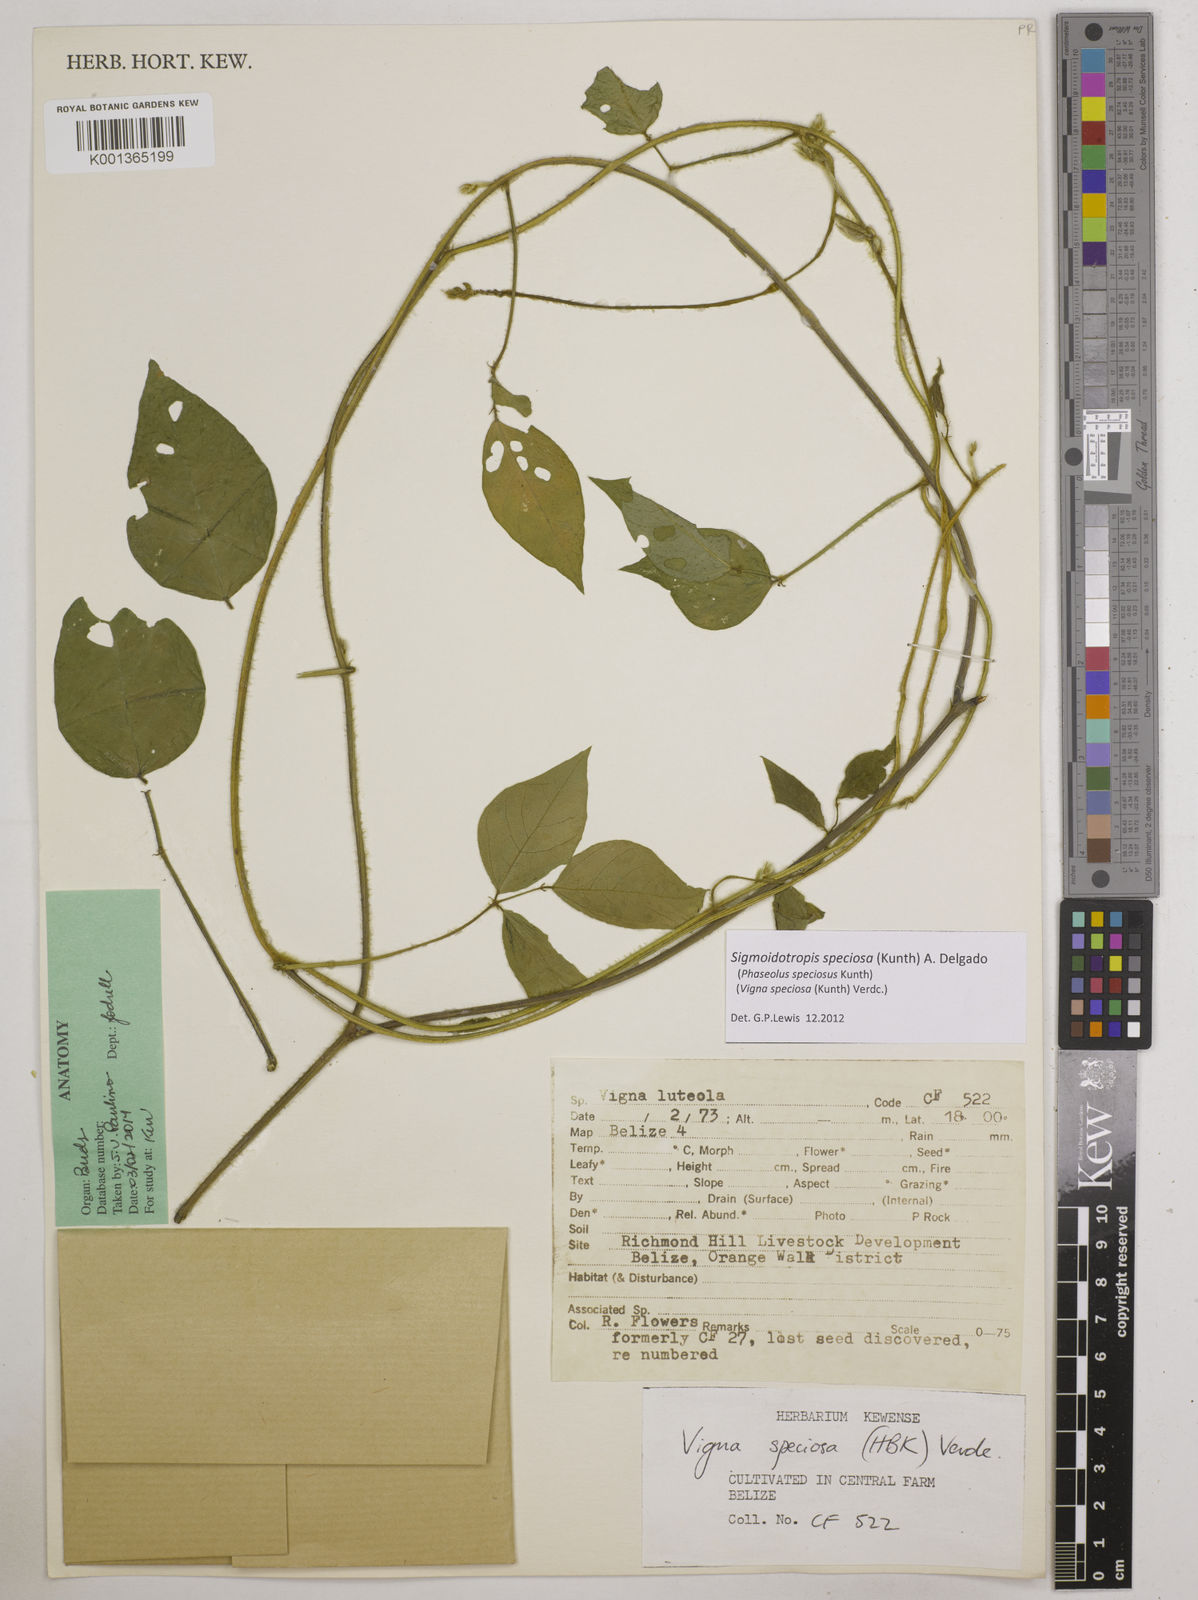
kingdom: Plantae
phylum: Tracheophyta
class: Magnoliopsida
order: Fabales
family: Fabaceae
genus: Sigmoidotropis
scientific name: Sigmoidotropis speciosa
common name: Snail flower
